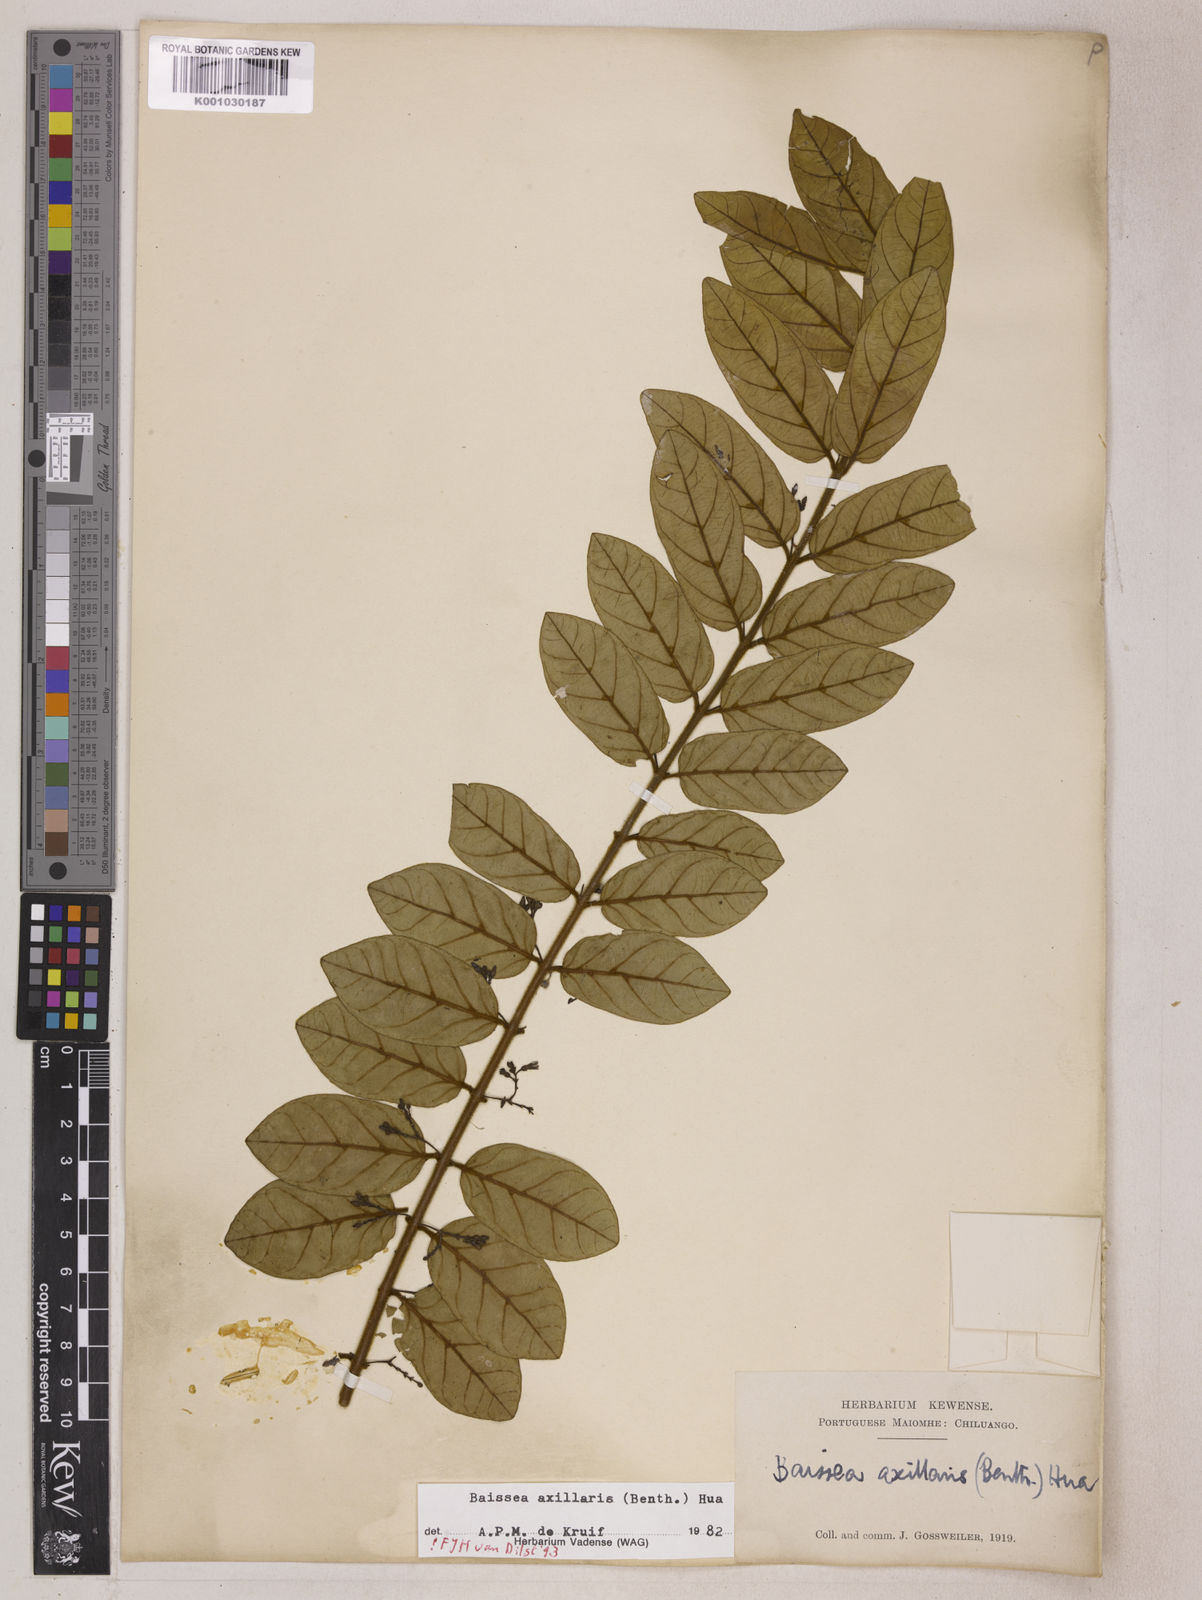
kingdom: Plantae
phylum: Tracheophyta
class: Magnoliopsida
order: Gentianales
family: Apocynaceae
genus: Baissea
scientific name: Baissea axillaris
